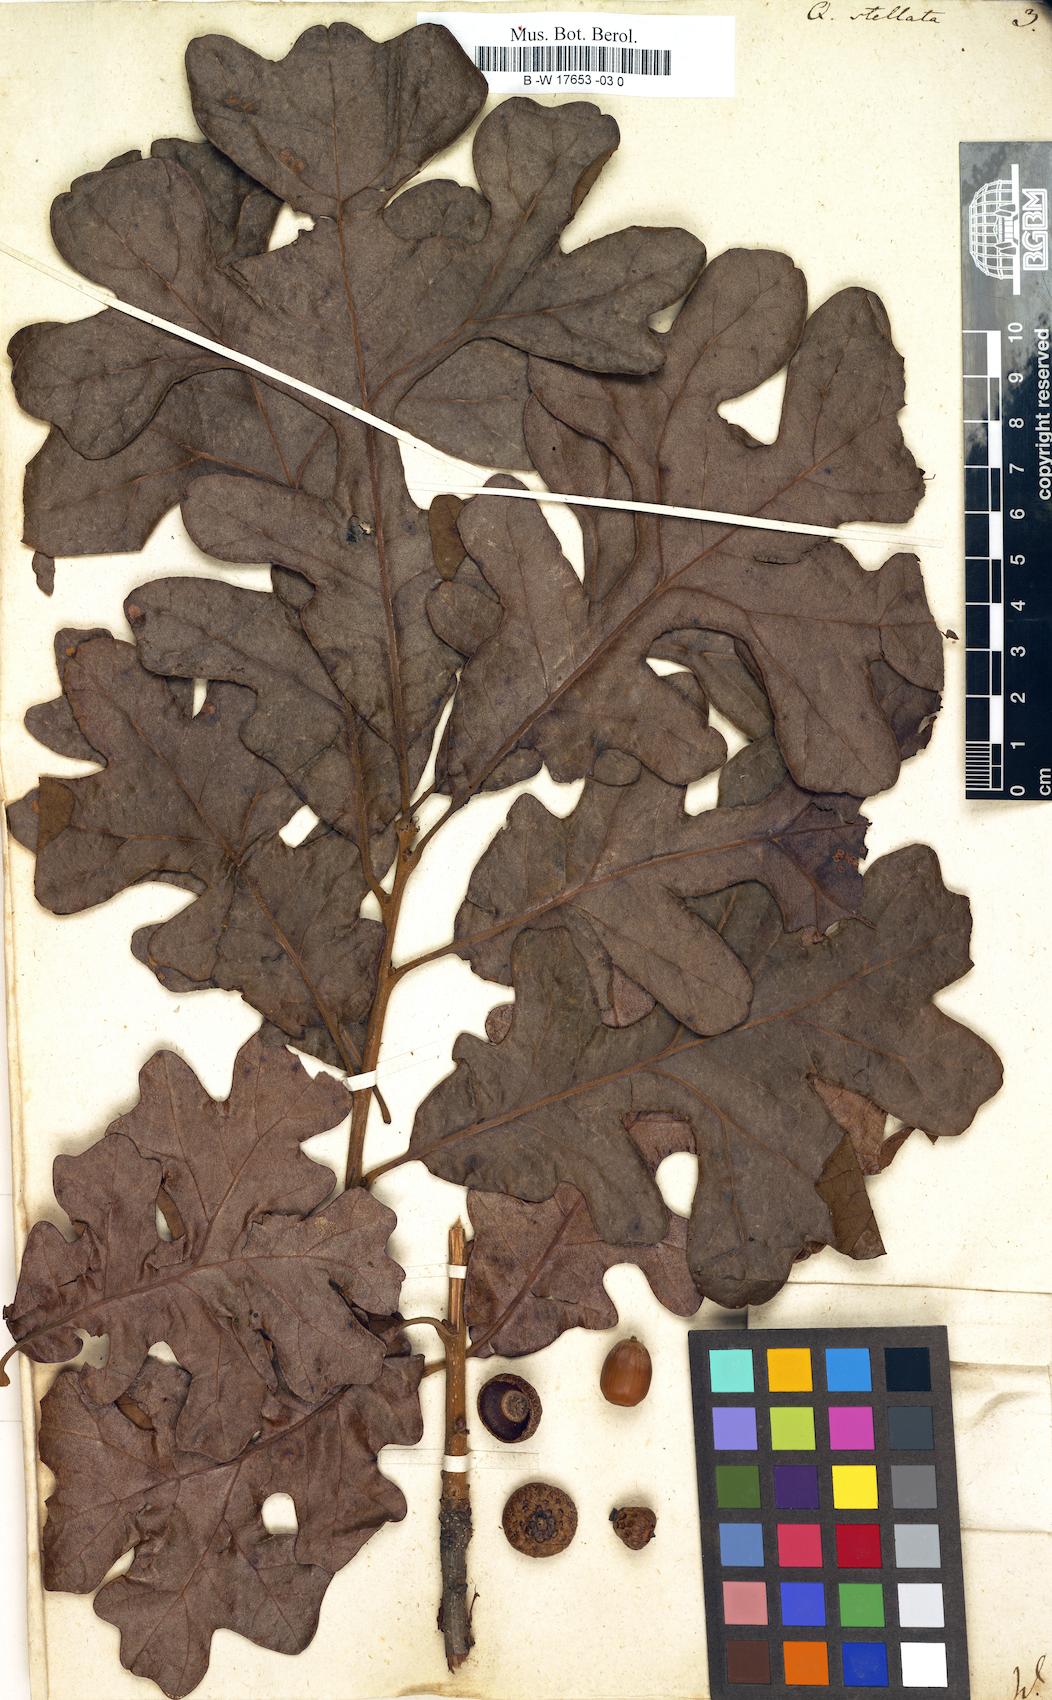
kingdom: Plantae
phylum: Tracheophyta
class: Magnoliopsida
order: Fagales
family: Fagaceae
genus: Quercus
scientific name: Quercus stellata
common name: Post oak
